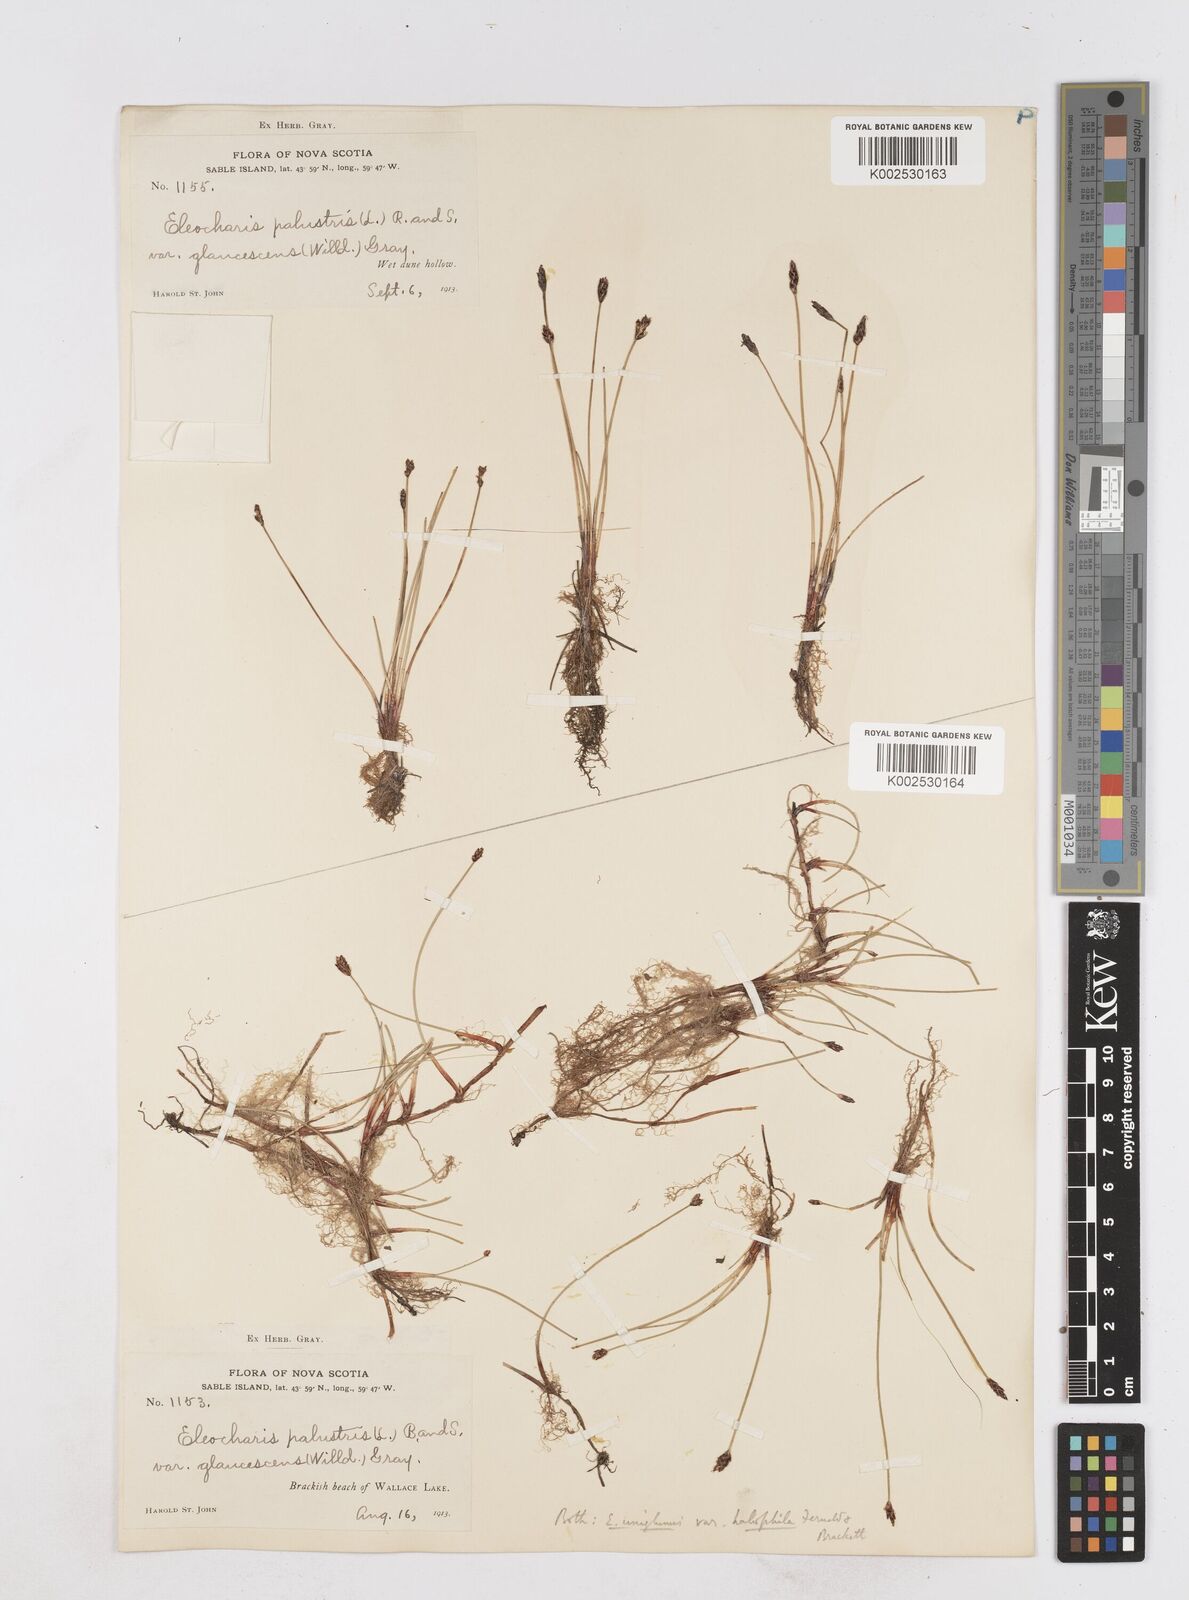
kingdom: Plantae
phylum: Tracheophyta
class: Liliopsida
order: Poales
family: Cyperaceae
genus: Eleocharis
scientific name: Eleocharis uniglumis
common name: Slender spike-rush
